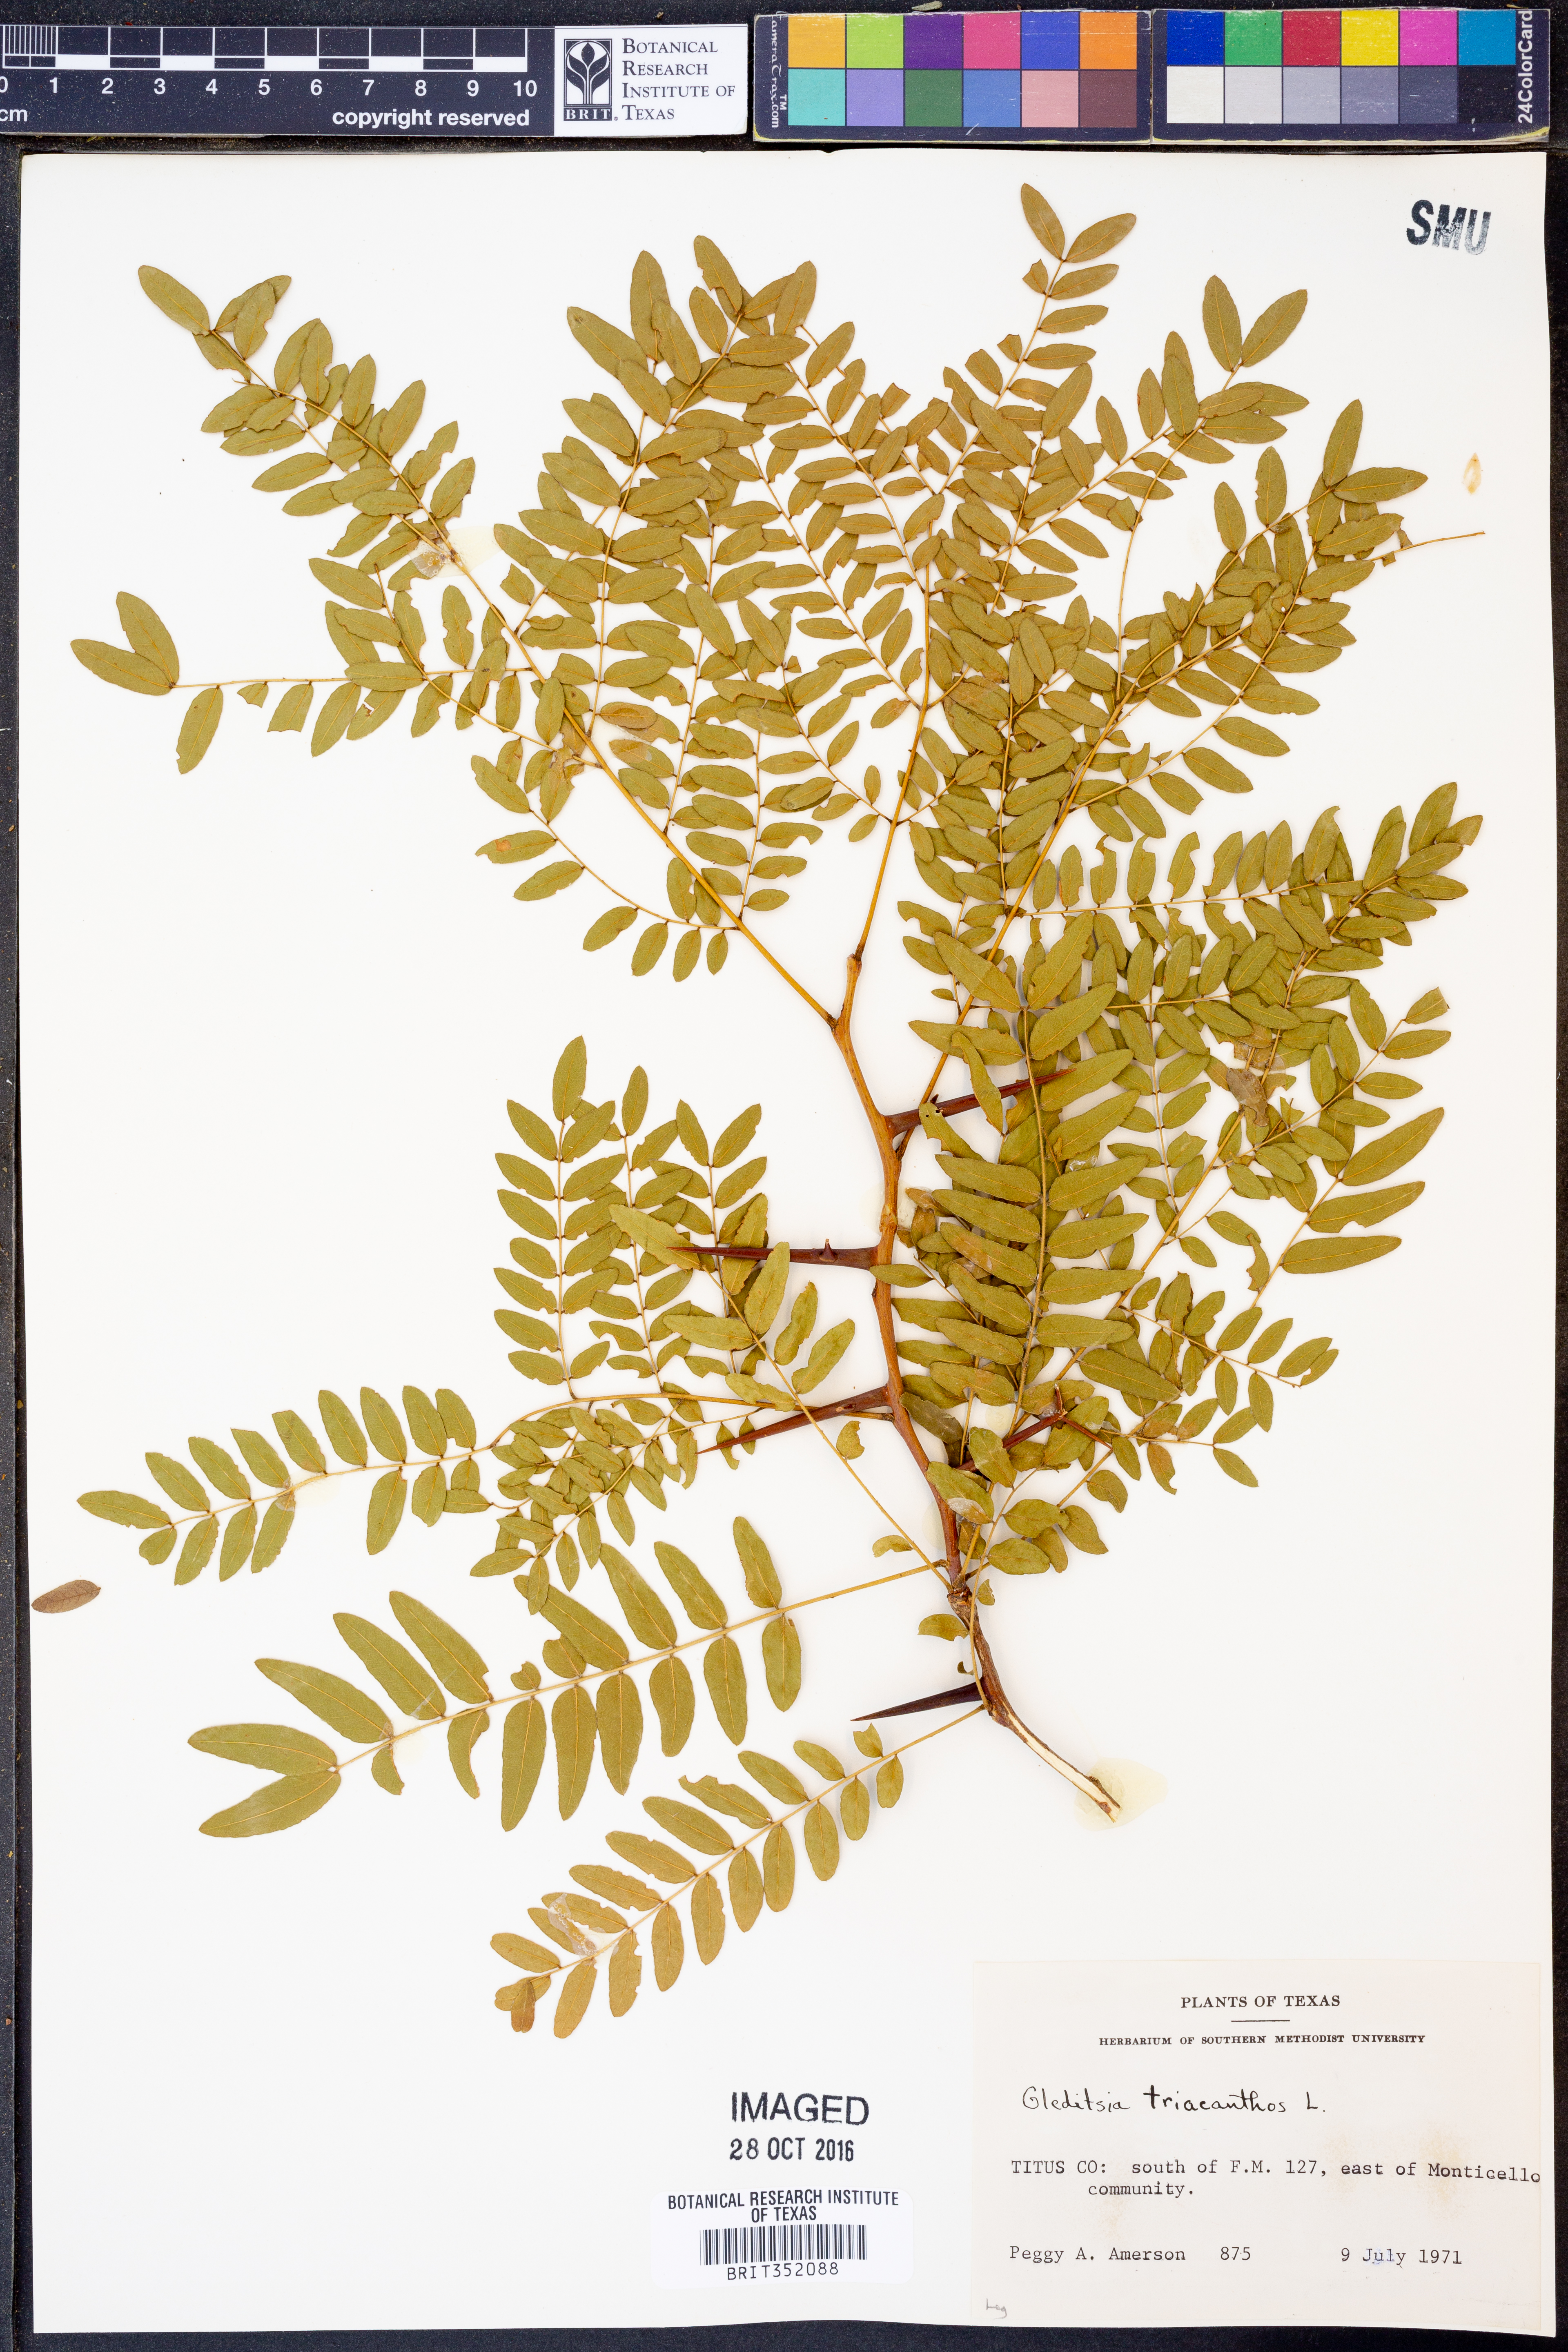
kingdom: Plantae
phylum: Tracheophyta
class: Magnoliopsida
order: Fabales
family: Fabaceae
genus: Gleditsia
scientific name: Gleditsia triacanthos
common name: Common honeylocust
